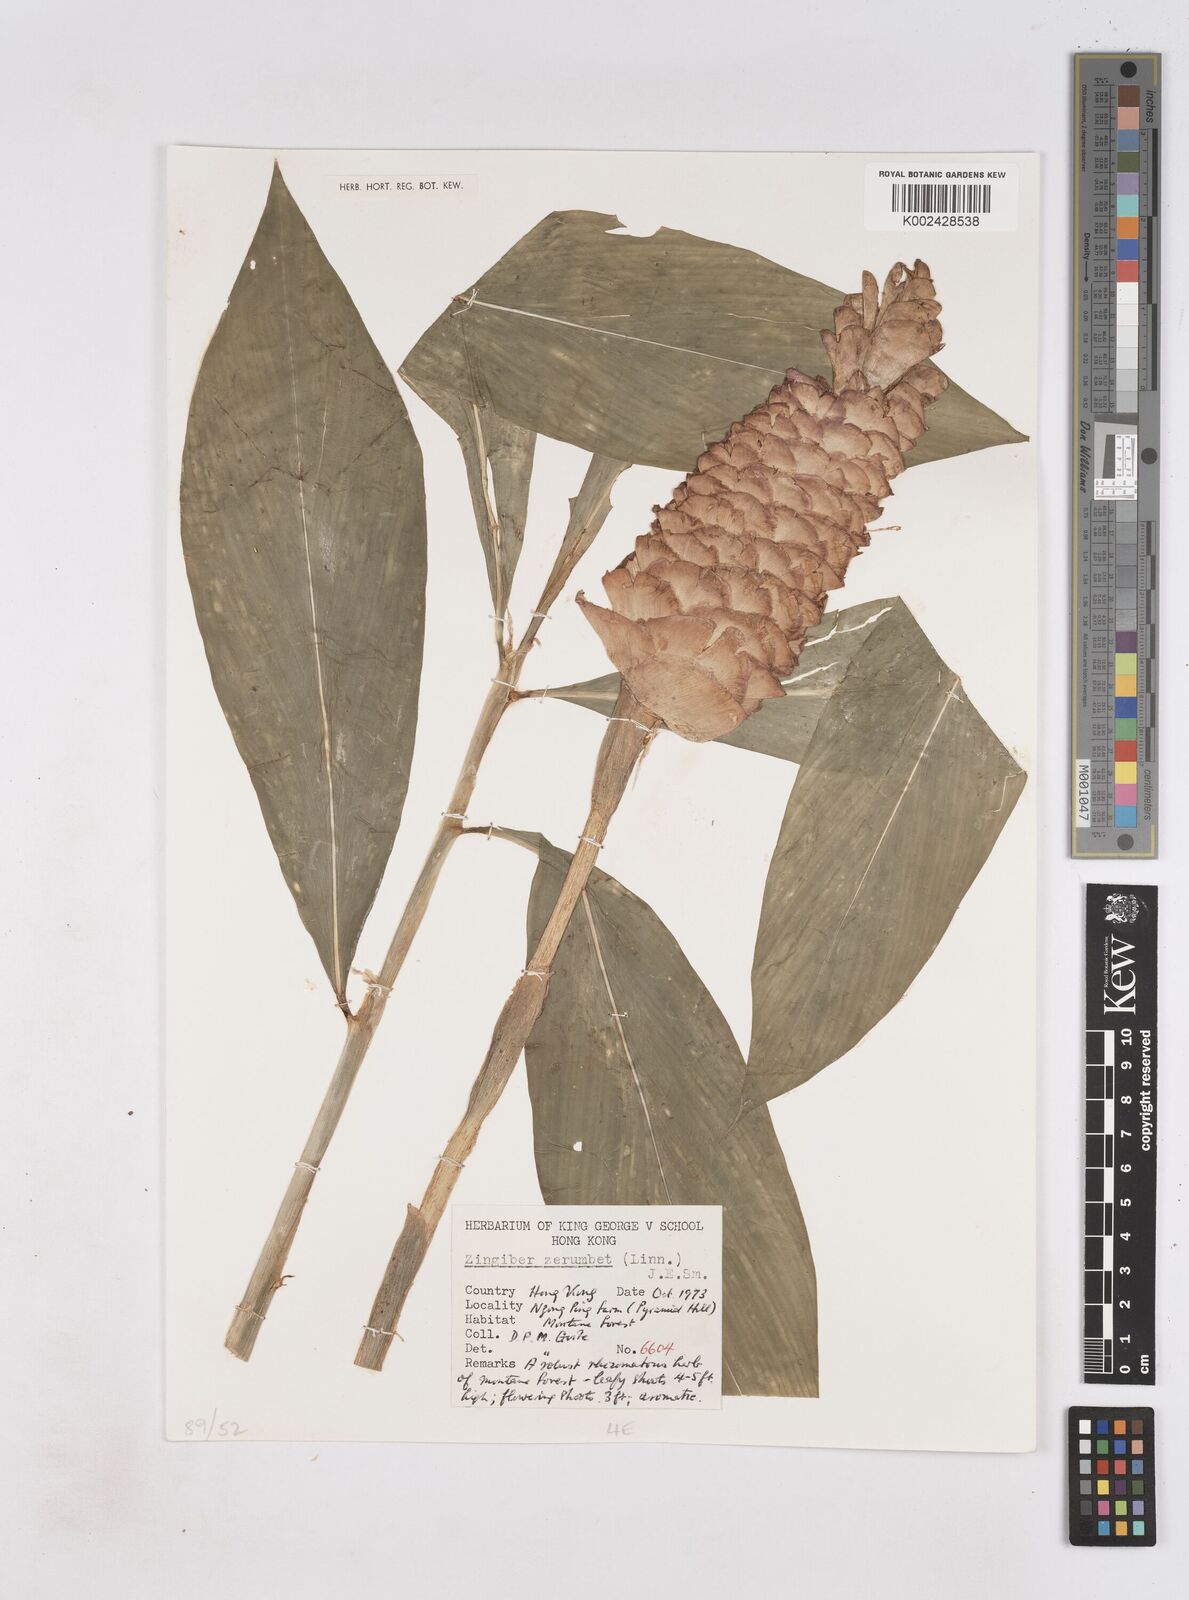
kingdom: Plantae
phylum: Tracheophyta
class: Liliopsida
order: Zingiberales
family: Zingiberaceae
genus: Zingiber
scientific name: Zingiber zerumbet
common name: Bitter ginger
